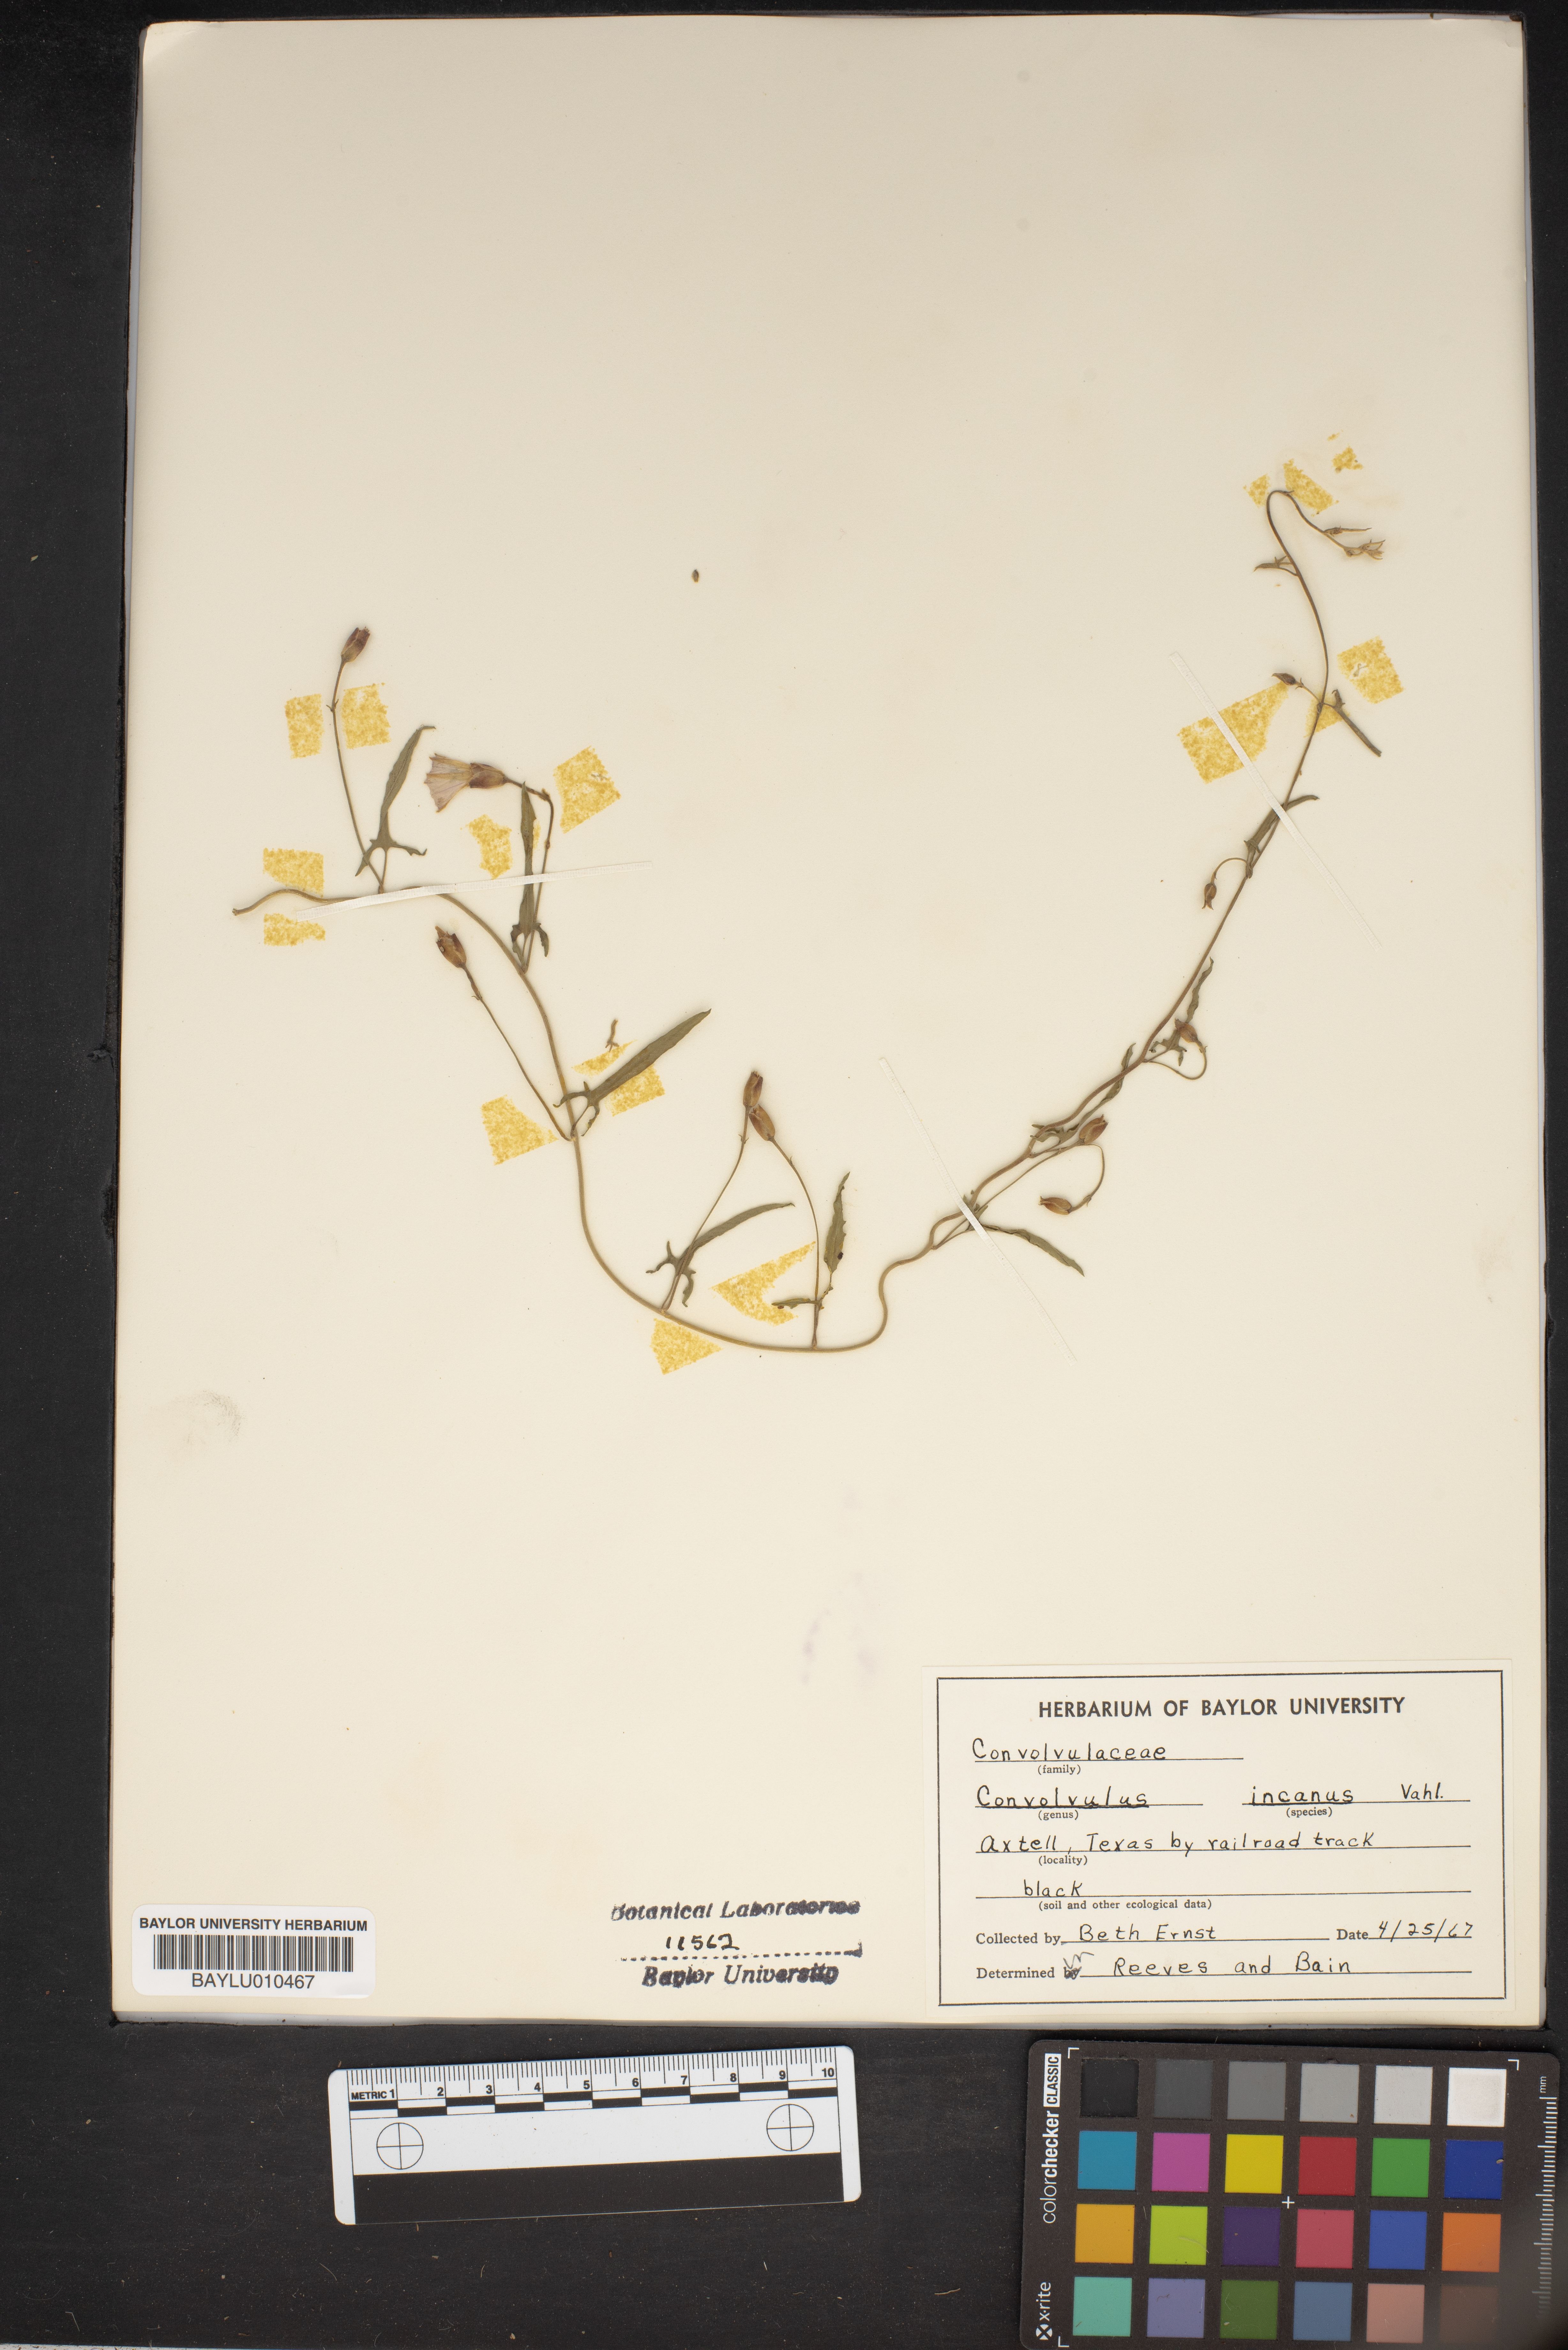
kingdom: Plantae
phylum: Tracheophyta
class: Magnoliopsida
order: Solanales
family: Convolvulaceae
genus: Convolvulus
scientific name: Convolvulus hermanniae
